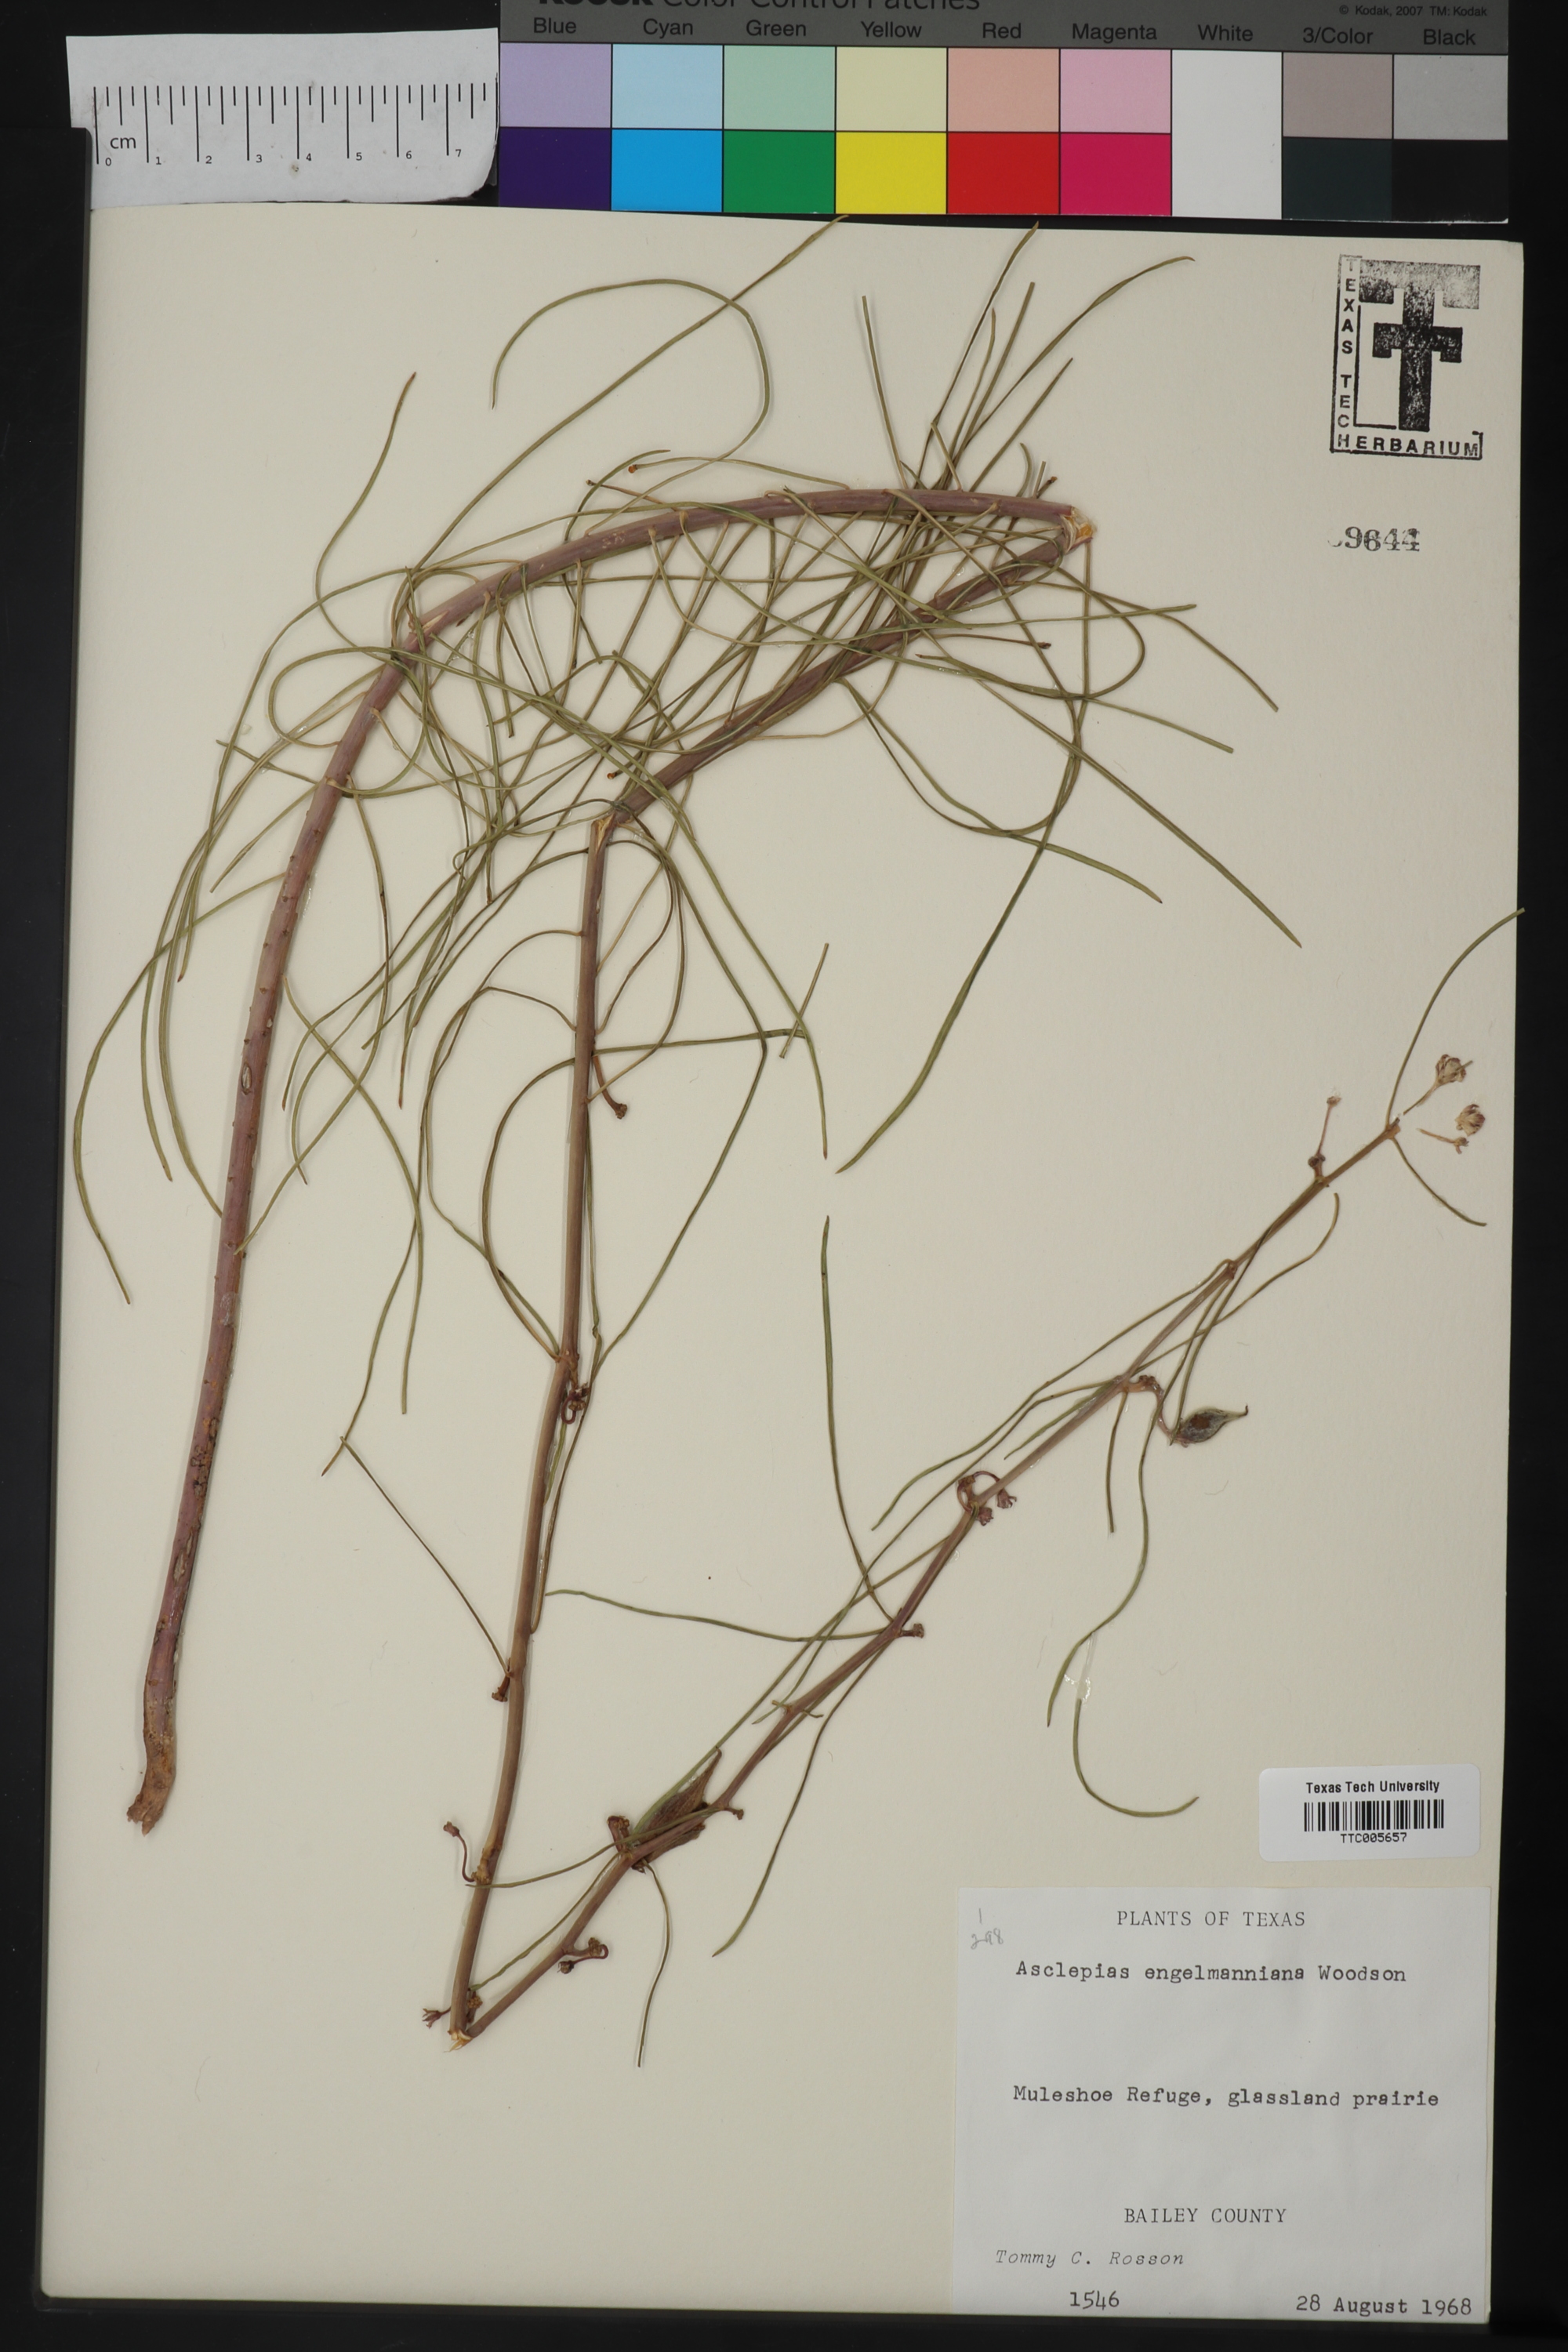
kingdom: Plantae
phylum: Tracheophyta
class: Magnoliopsida
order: Gentianales
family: Apocynaceae
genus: Asclepias
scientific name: Asclepias engelmanniana
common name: Engelmann's milkweed
